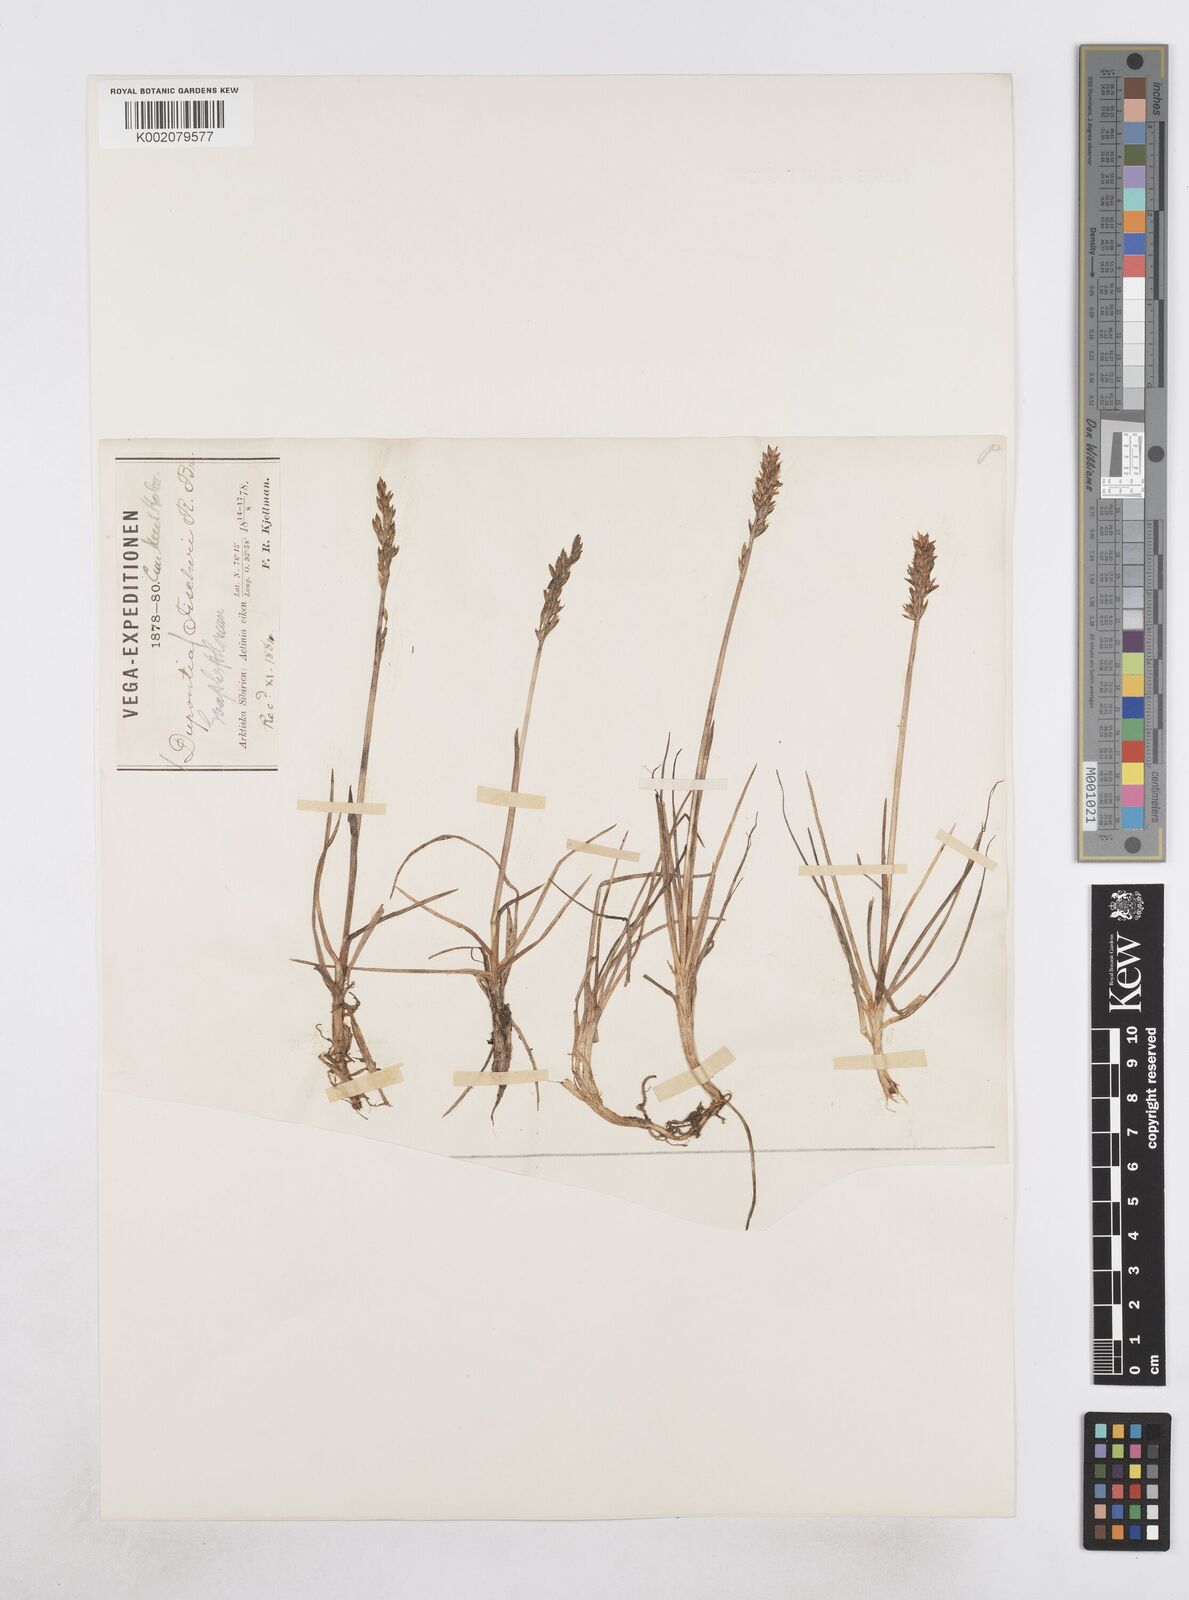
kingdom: Plantae
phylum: Tracheophyta
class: Liliopsida
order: Poales
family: Poaceae
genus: Dupontia
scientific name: Dupontia fisheri
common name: Tundra grass
